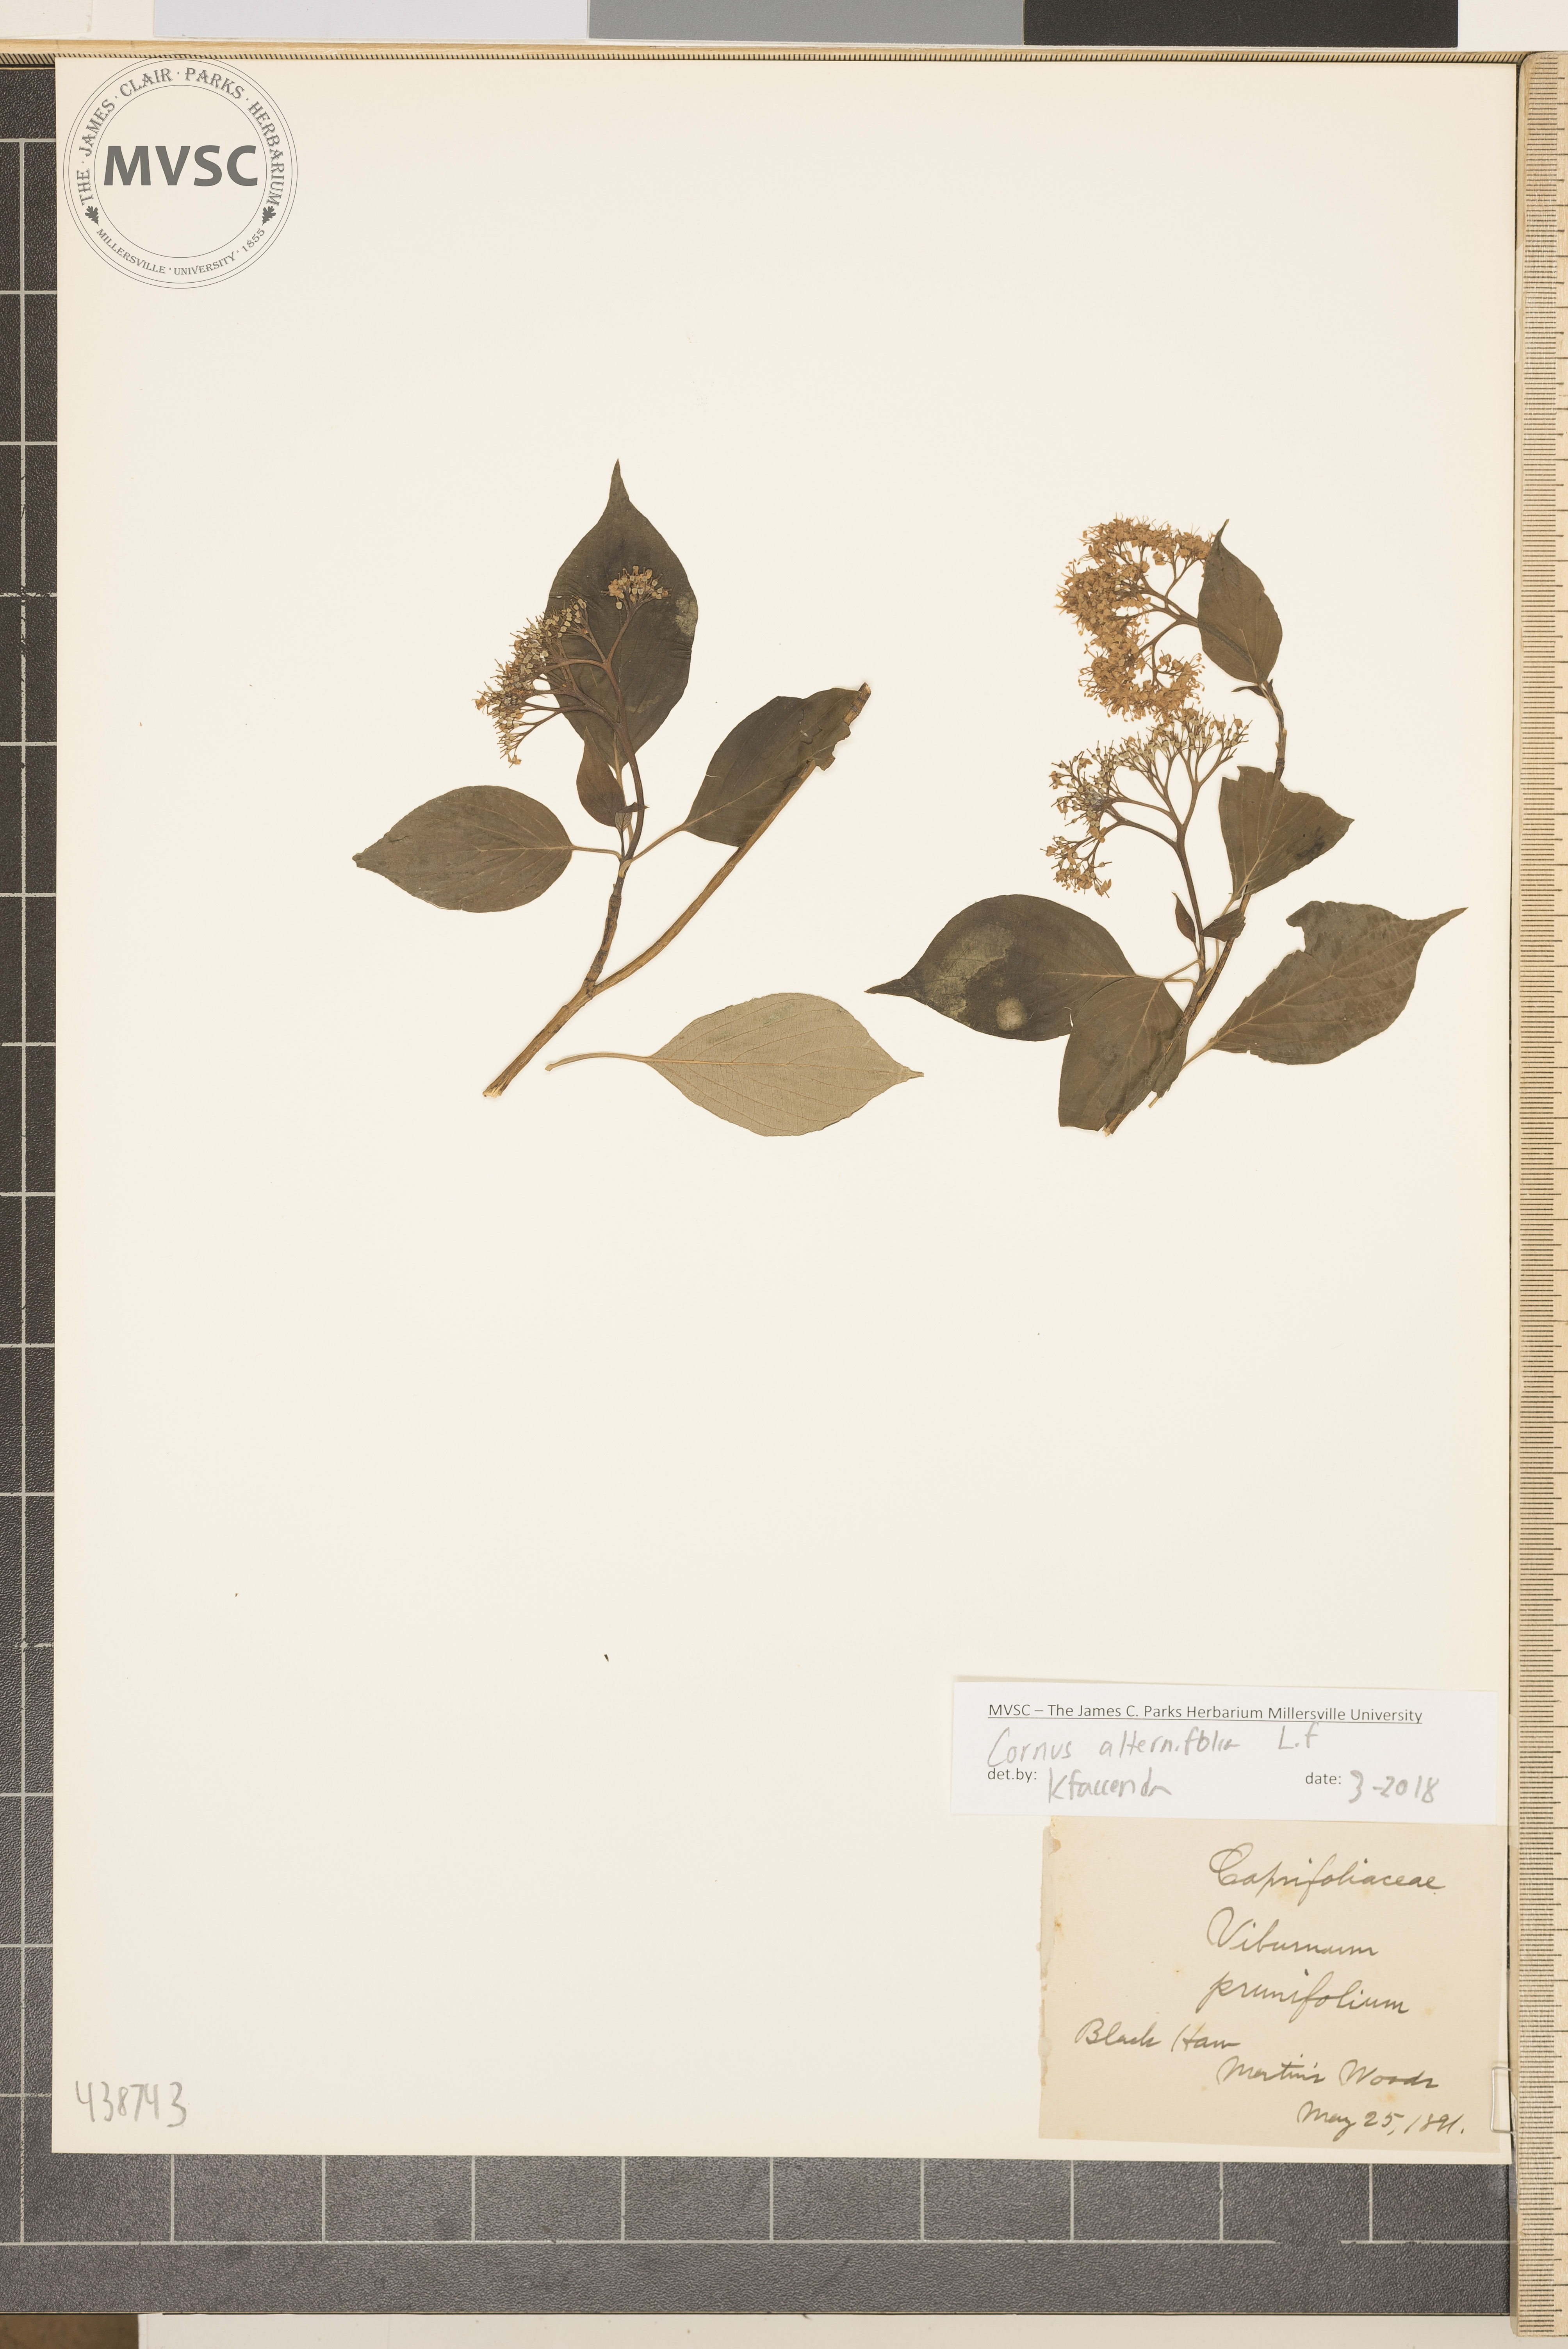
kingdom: Plantae
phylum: Tracheophyta
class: Magnoliopsida
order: Cornales
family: Cornaceae
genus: Cornus
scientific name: Cornus alternifolia
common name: Pagoda dogwood
